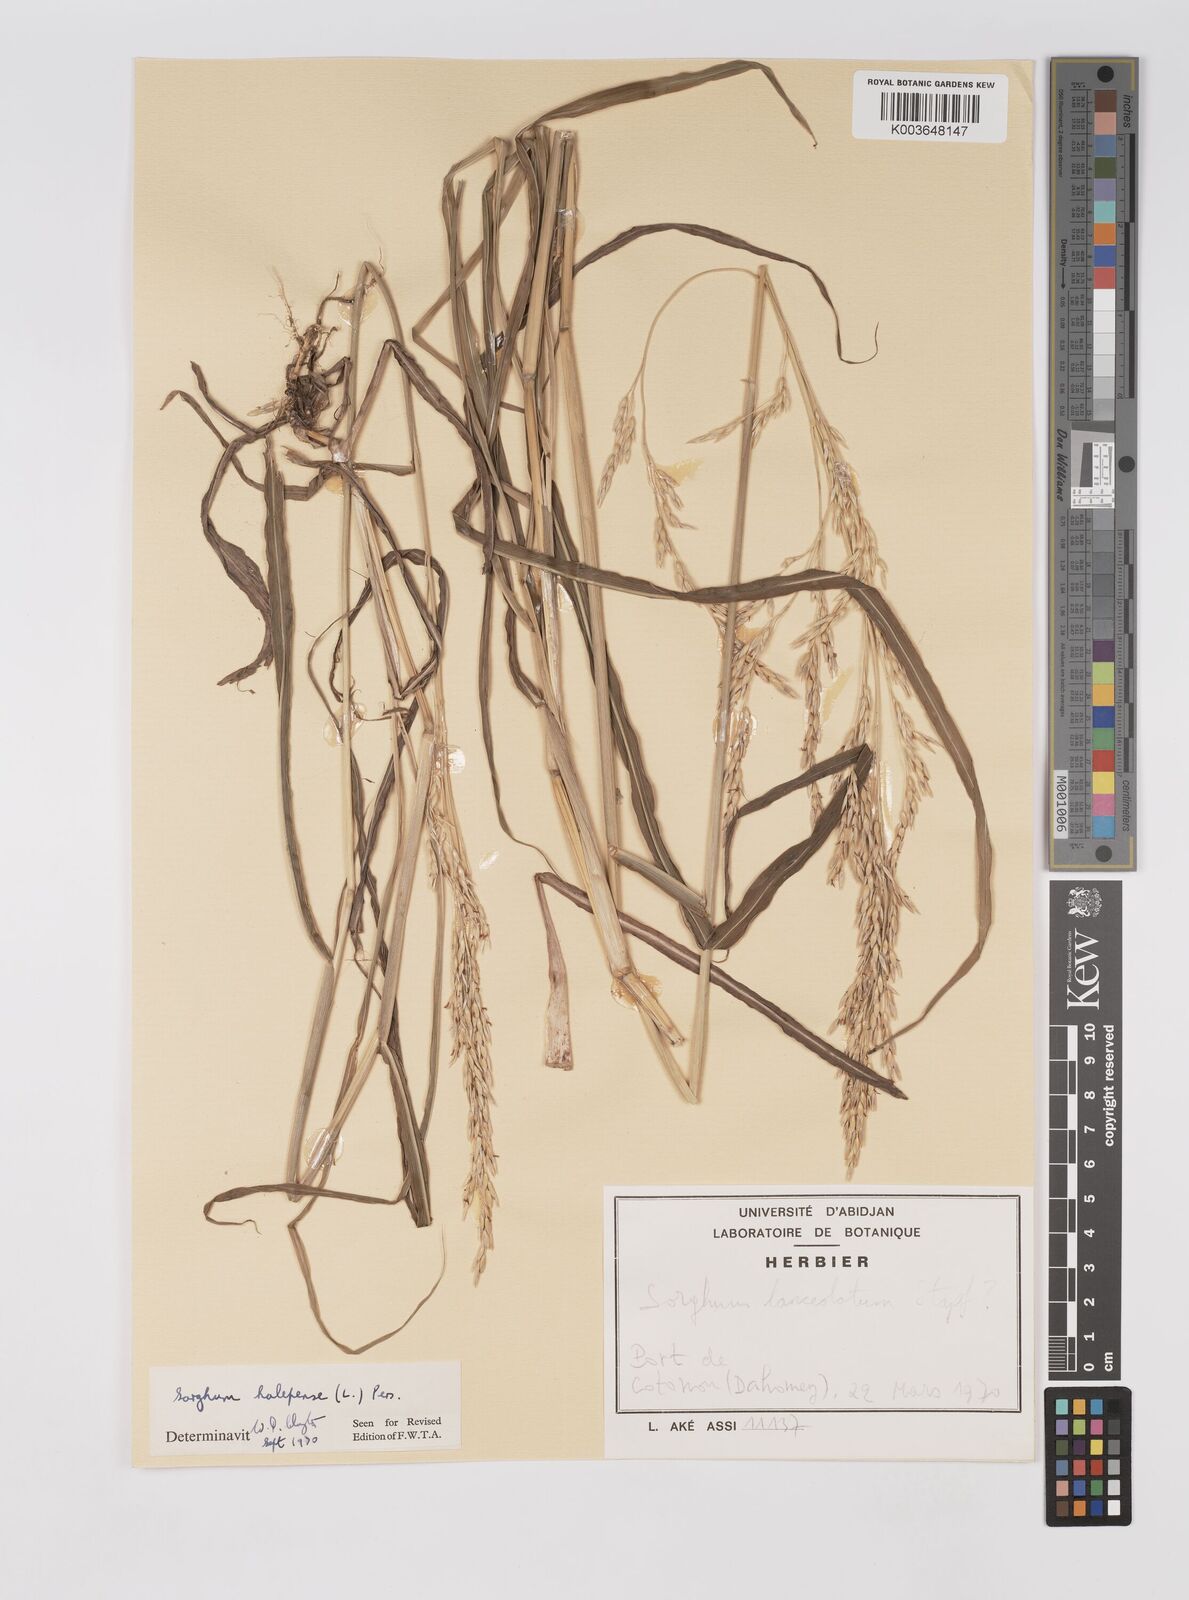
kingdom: Plantae
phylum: Tracheophyta
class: Liliopsida
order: Poales
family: Poaceae
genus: Sorghum
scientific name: Sorghum halepense
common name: Johnson-grass
